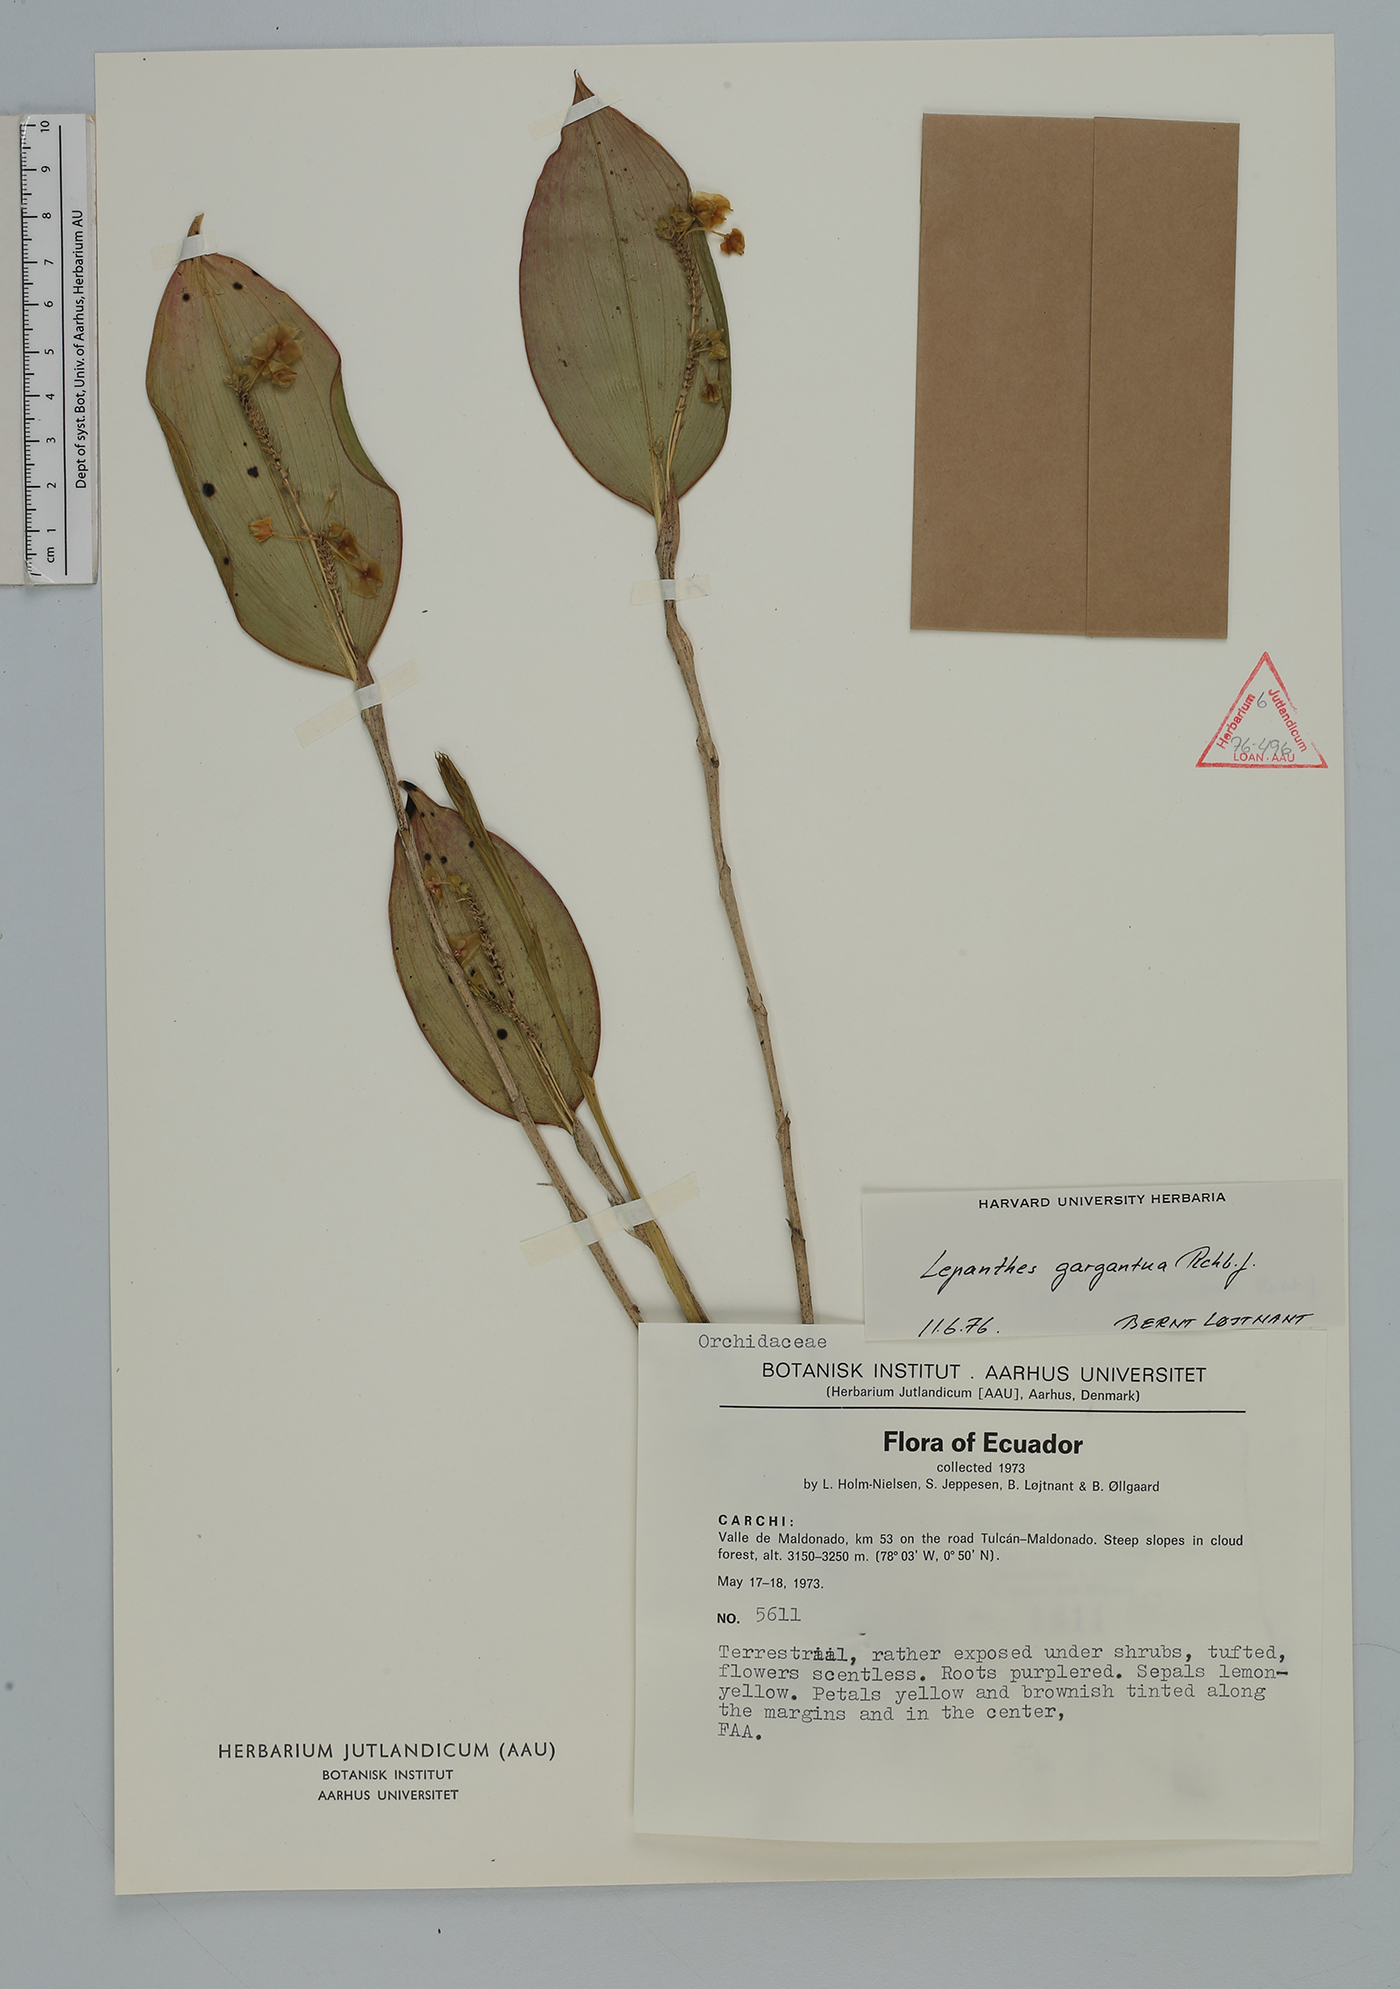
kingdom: Plantae
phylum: Tracheophyta
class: Liliopsida
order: Asparagales
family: Orchidaceae
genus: Lepanthes
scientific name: Lepanthes gargantua
